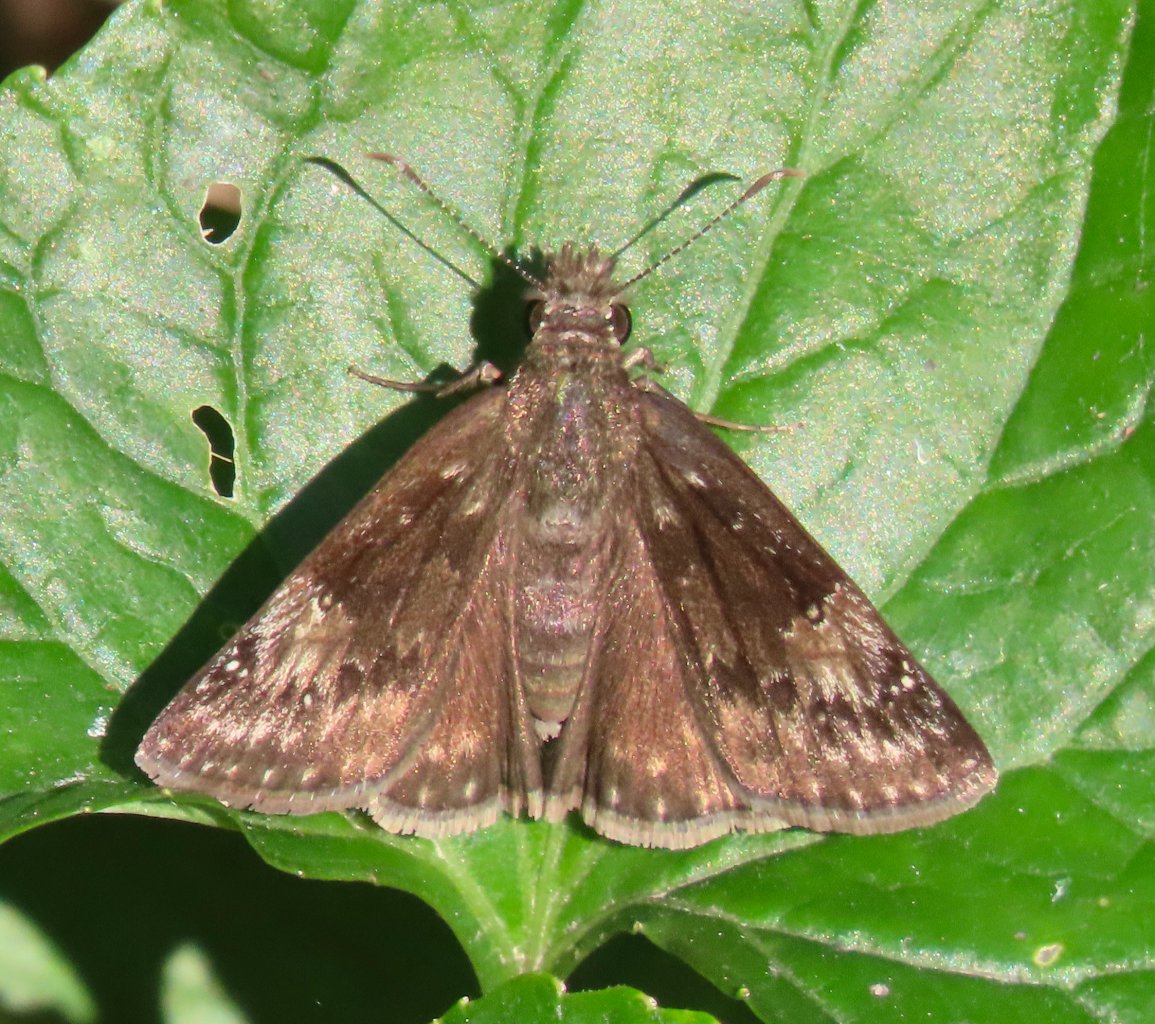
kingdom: Animalia
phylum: Arthropoda
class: Insecta
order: Lepidoptera
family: Hesperiidae
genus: Gesta
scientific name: Gesta
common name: Wild Indigo Duskywing
